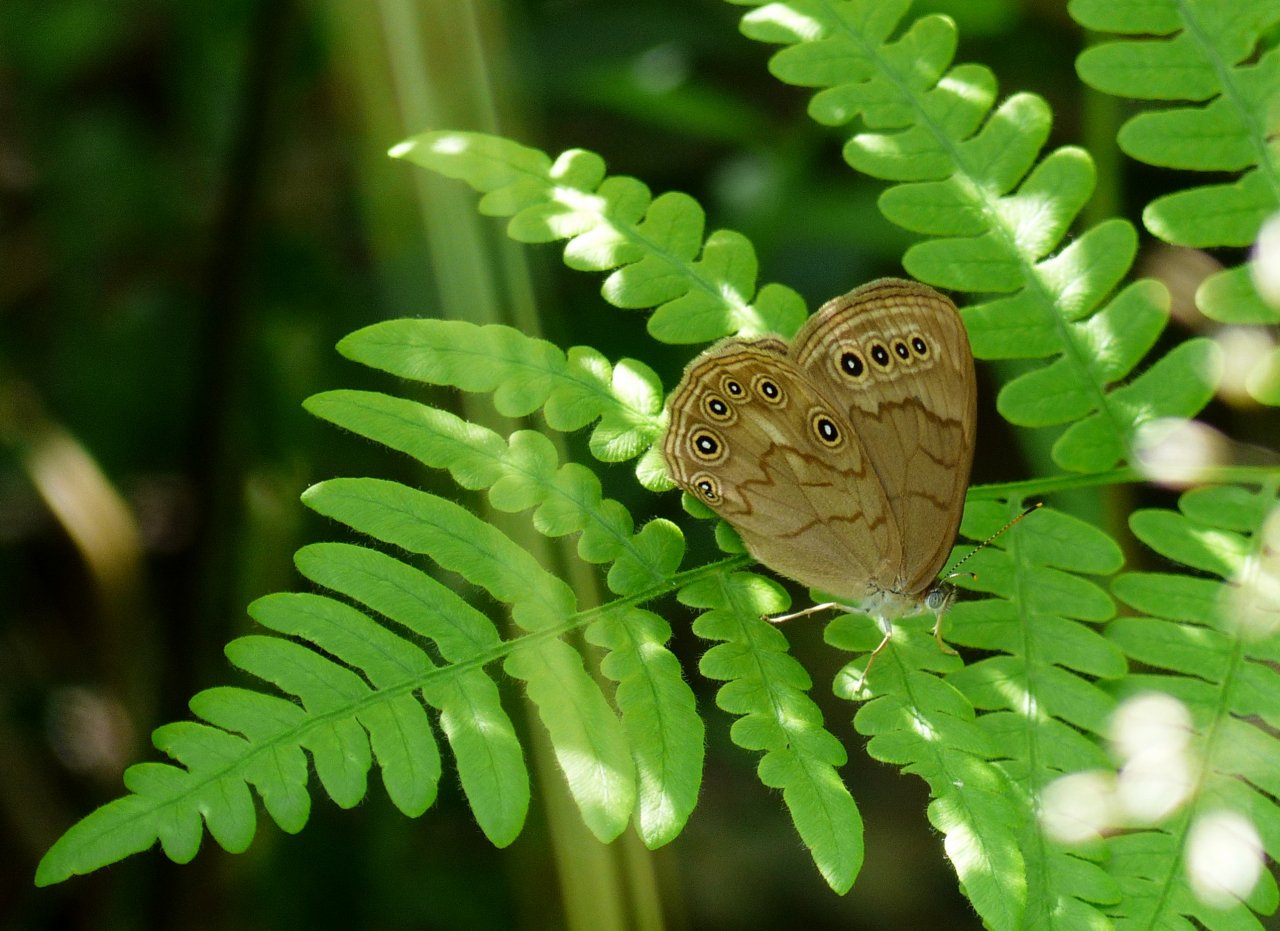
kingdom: Animalia
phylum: Arthropoda
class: Insecta
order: Lepidoptera
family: Nymphalidae
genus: Lethe
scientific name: Lethe eurydice
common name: Eyed Brown
